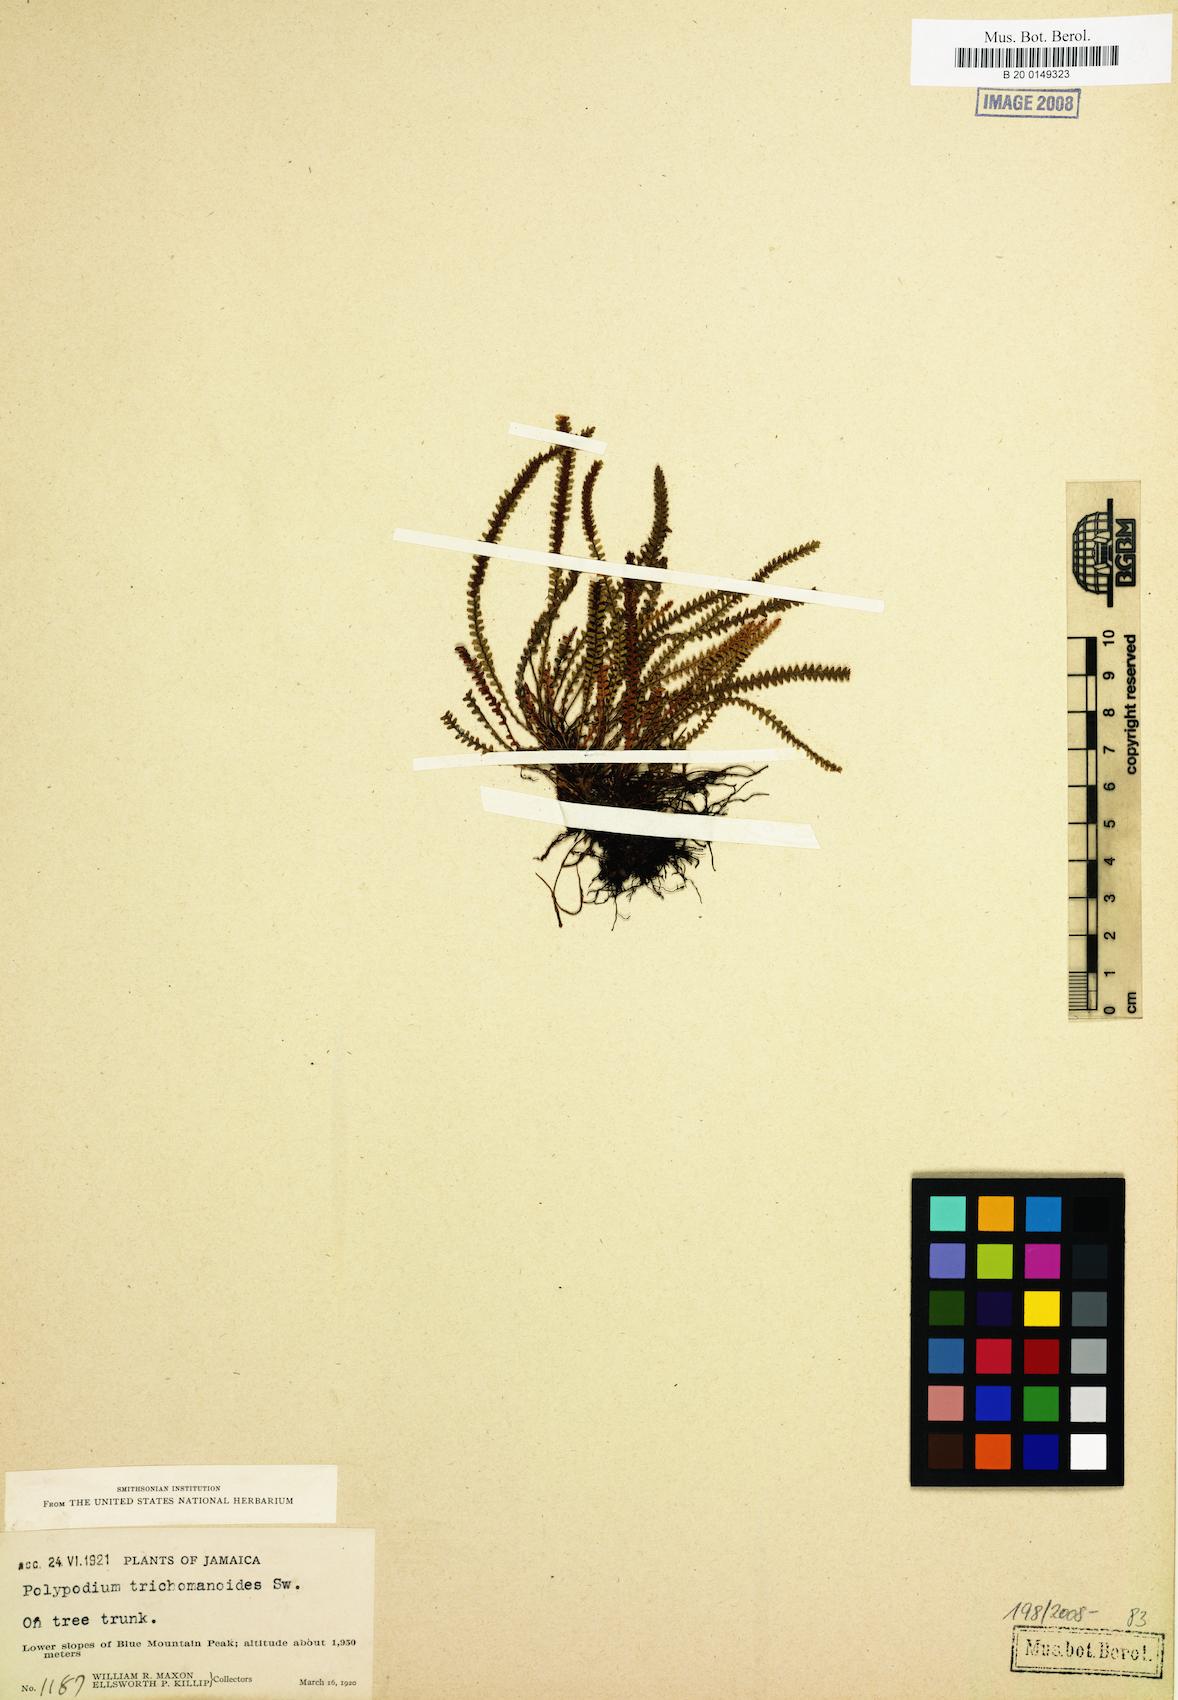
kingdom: Plantae
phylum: Tracheophyta
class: Polypodiopsida
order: Polypodiales
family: Polypodiaceae
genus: Moranopteris
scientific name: Moranopteris trichomanoides
